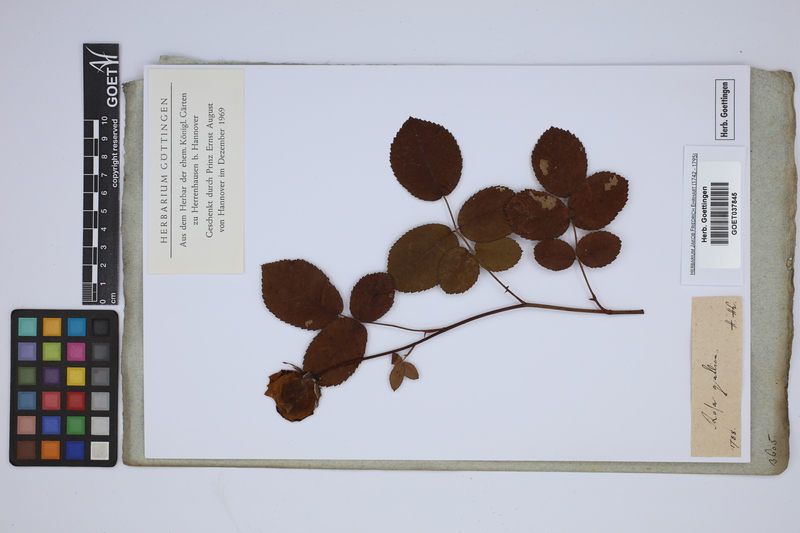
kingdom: Plantae
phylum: Tracheophyta
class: Magnoliopsida
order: Rosales
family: Rosaceae
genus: Rosa
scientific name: Rosa gallica
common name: French rose
